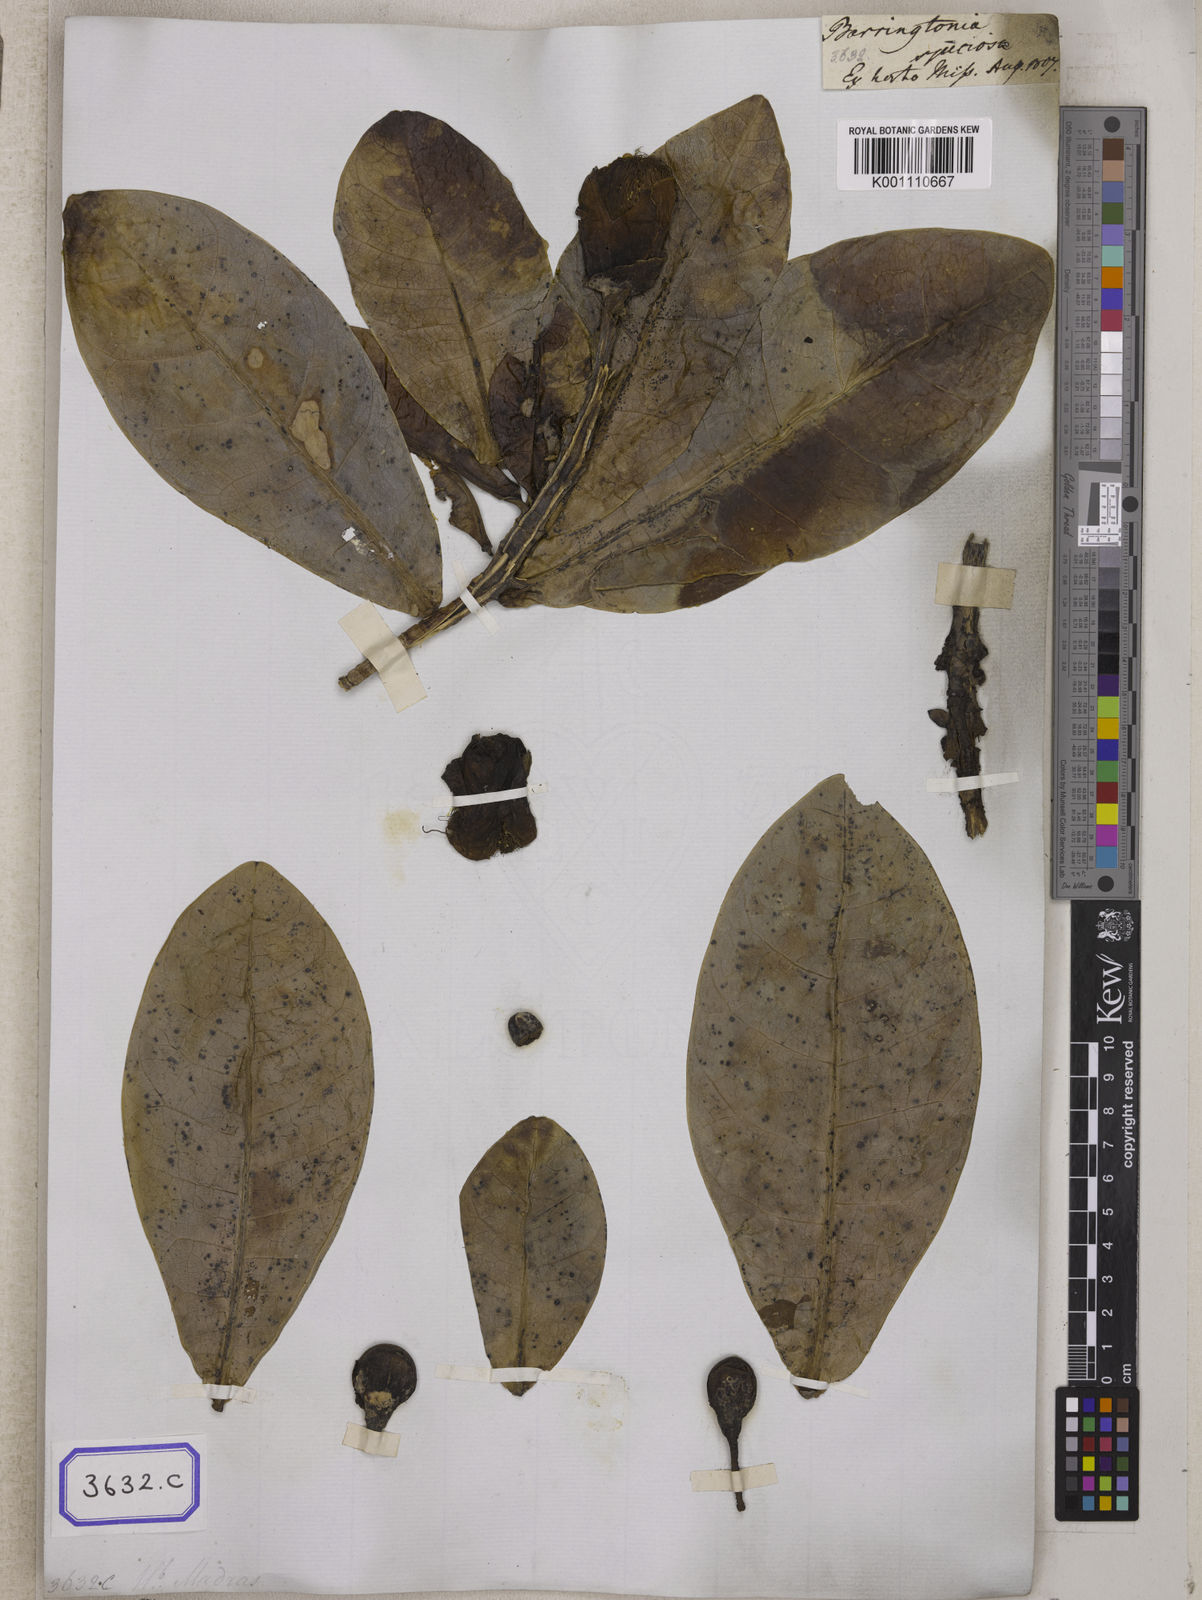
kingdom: Plantae
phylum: Tracheophyta
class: Magnoliopsida
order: Ericales
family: Lecythidaceae
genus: Barringtonia
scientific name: Barringtonia
